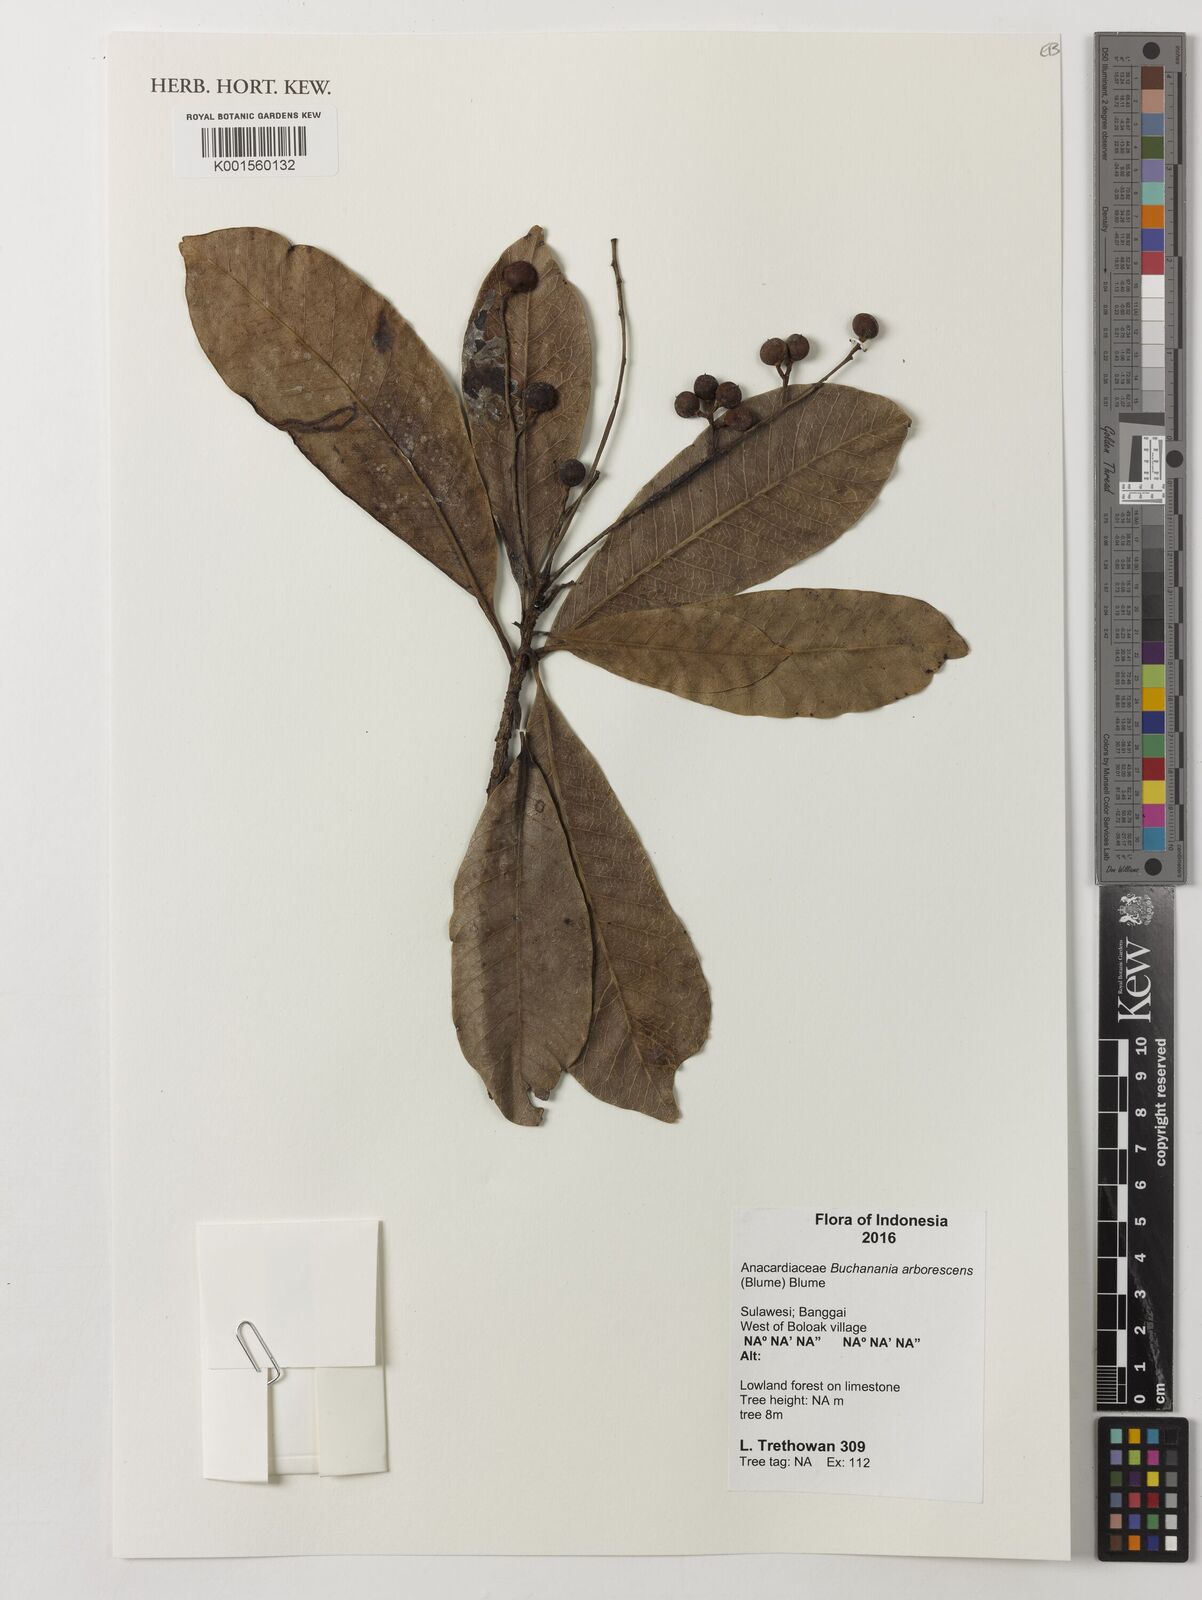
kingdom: Plantae
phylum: Tracheophyta
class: Magnoliopsida
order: Sapindales
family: Anacardiaceae
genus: Buchanania
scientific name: Buchanania arborescens
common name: Sparrow’s mango
